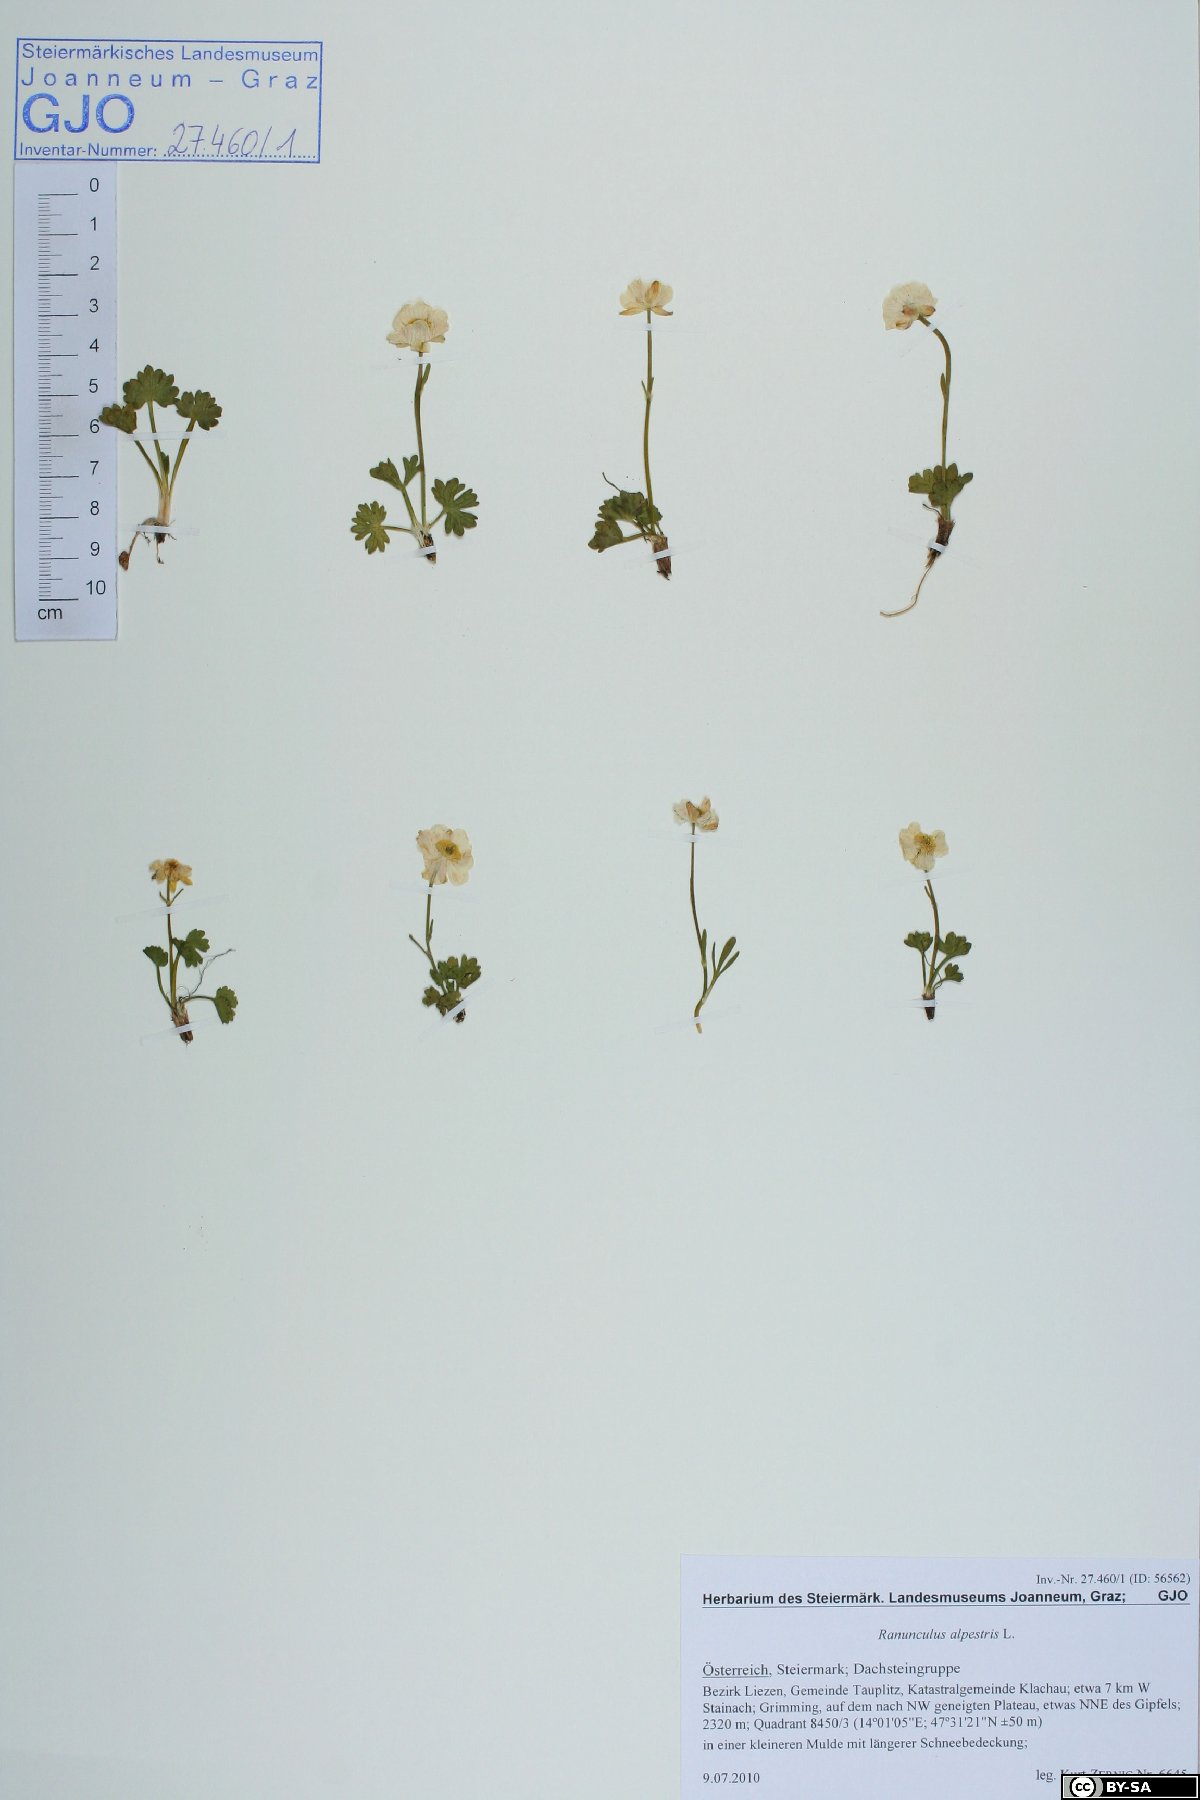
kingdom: Plantae
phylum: Tracheophyta
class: Magnoliopsida
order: Ranunculales
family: Ranunculaceae
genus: Ranunculus
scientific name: Ranunculus alpestris
